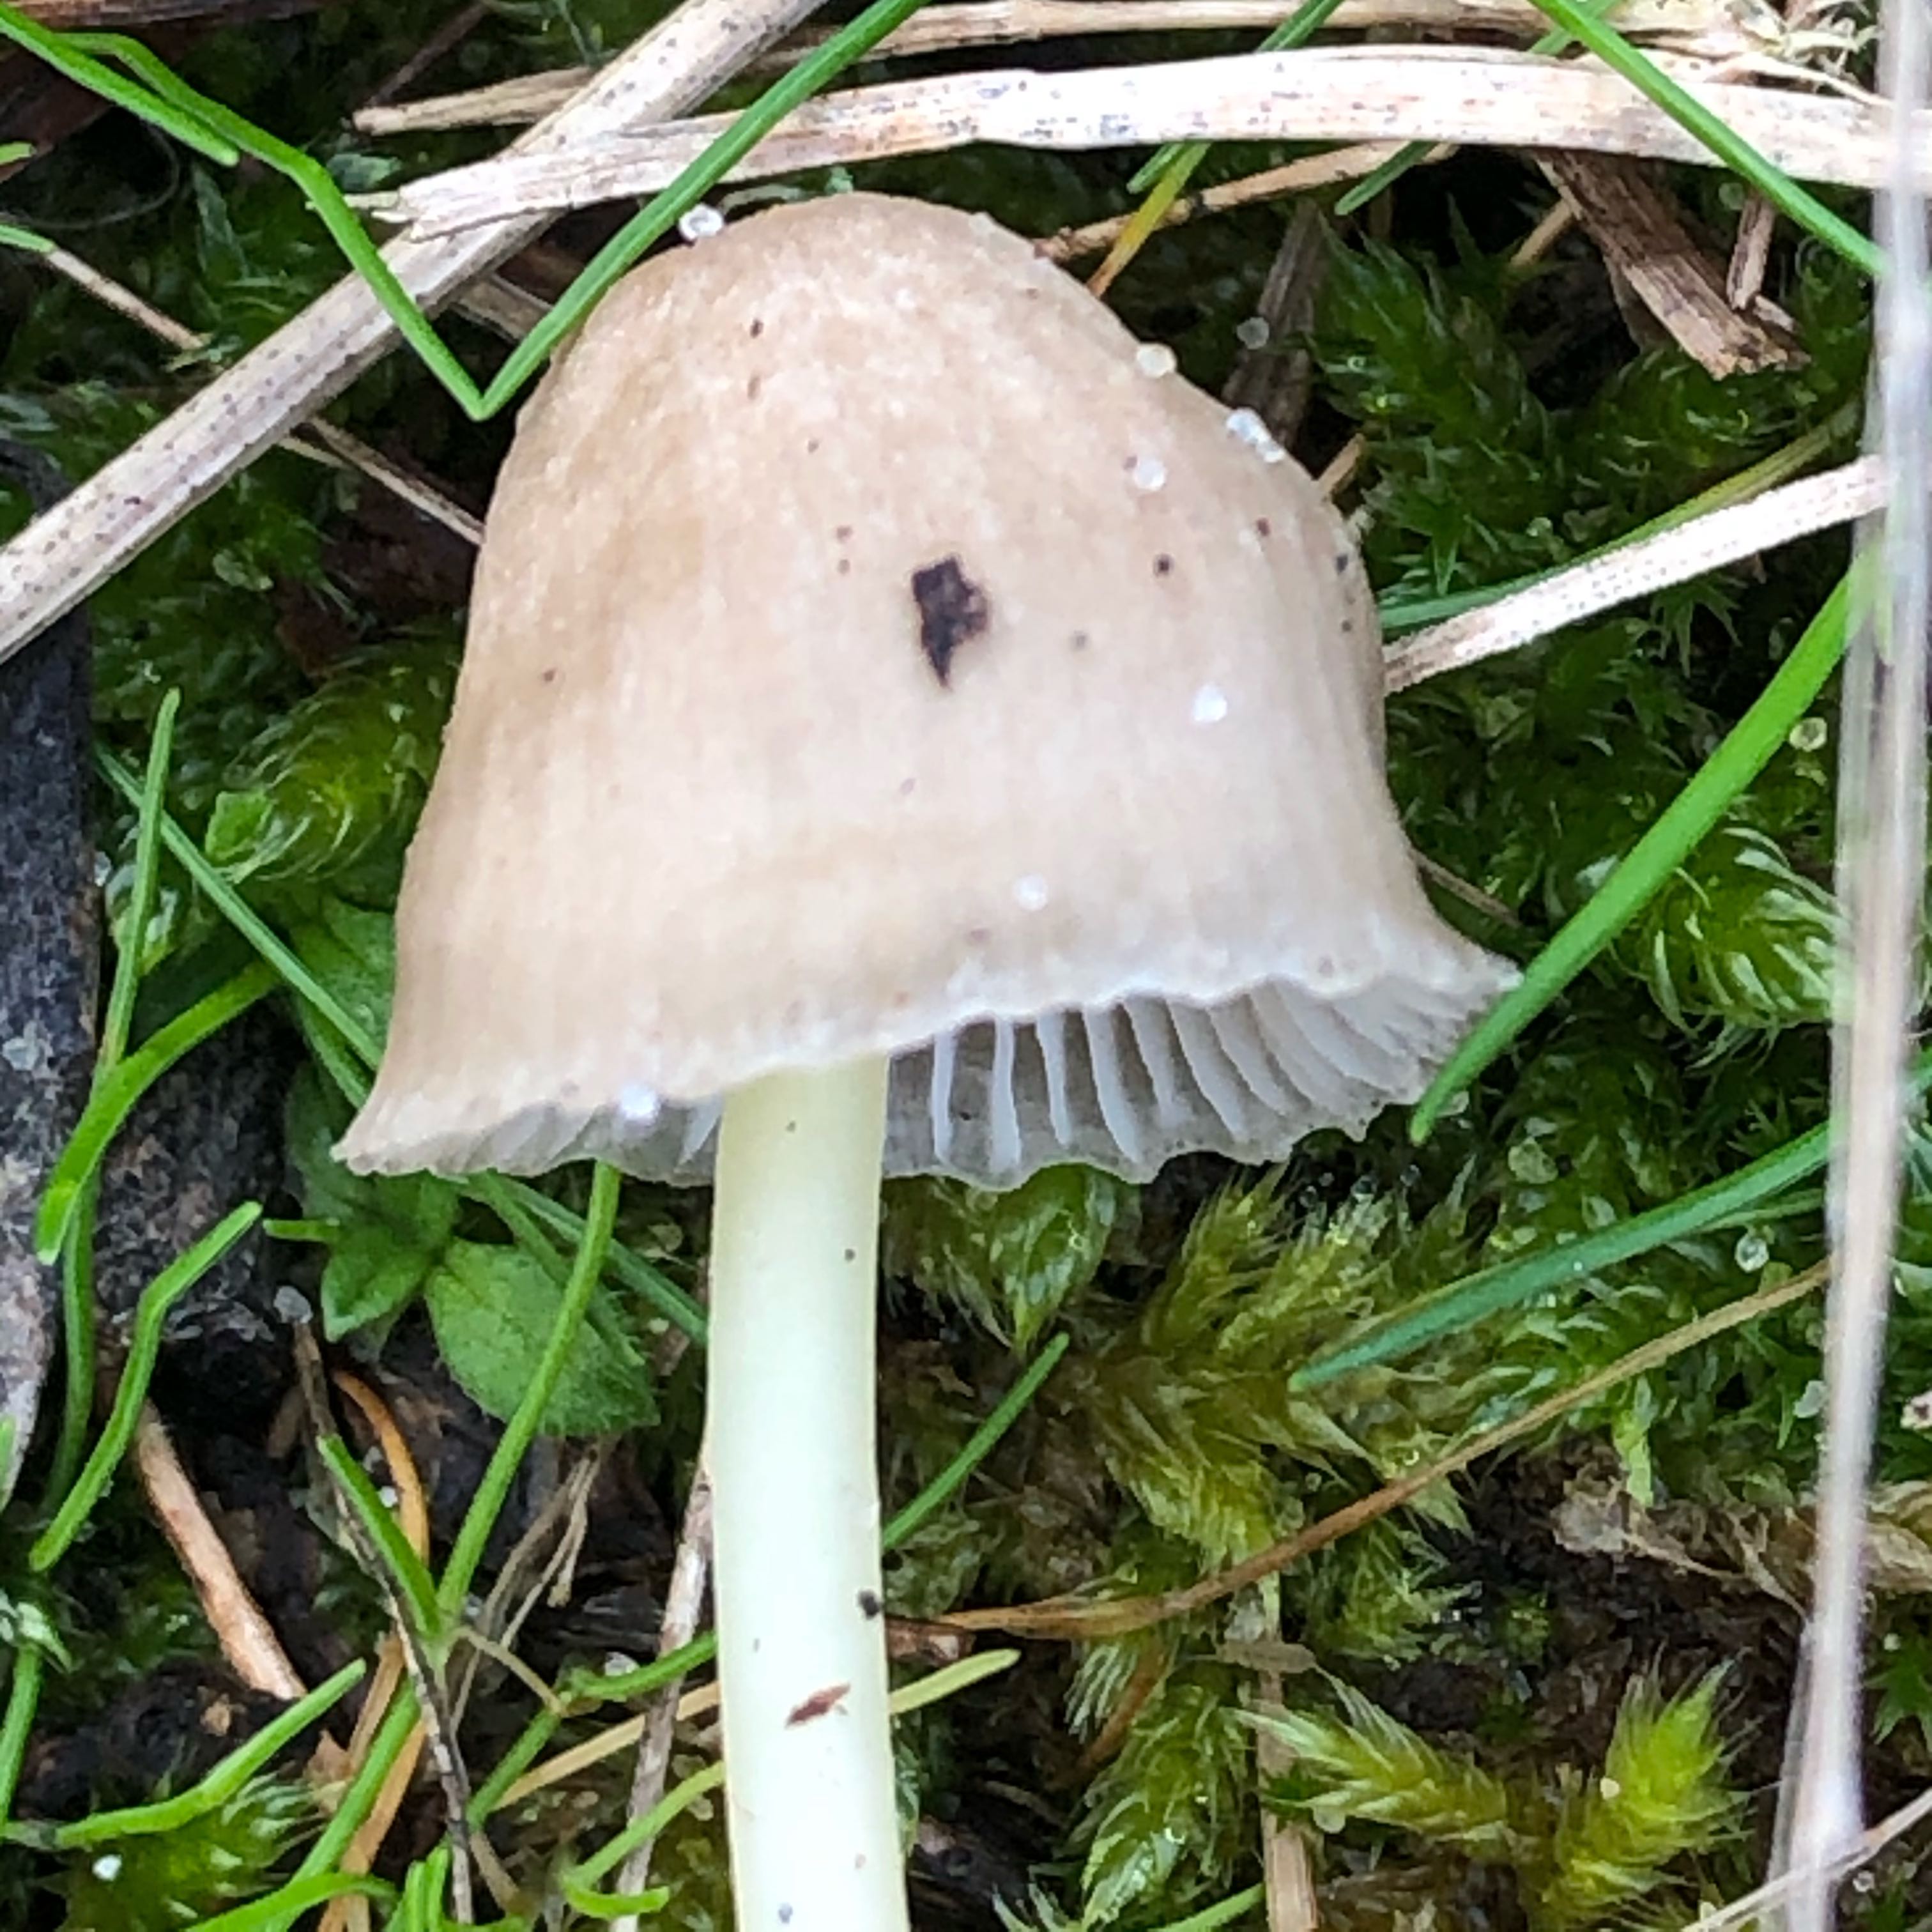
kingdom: Fungi
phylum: Basidiomycota
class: Agaricomycetes
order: Agaricales
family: Mycenaceae
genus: Mycena
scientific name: Mycena epipterygia
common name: gulstokket huesvamp
